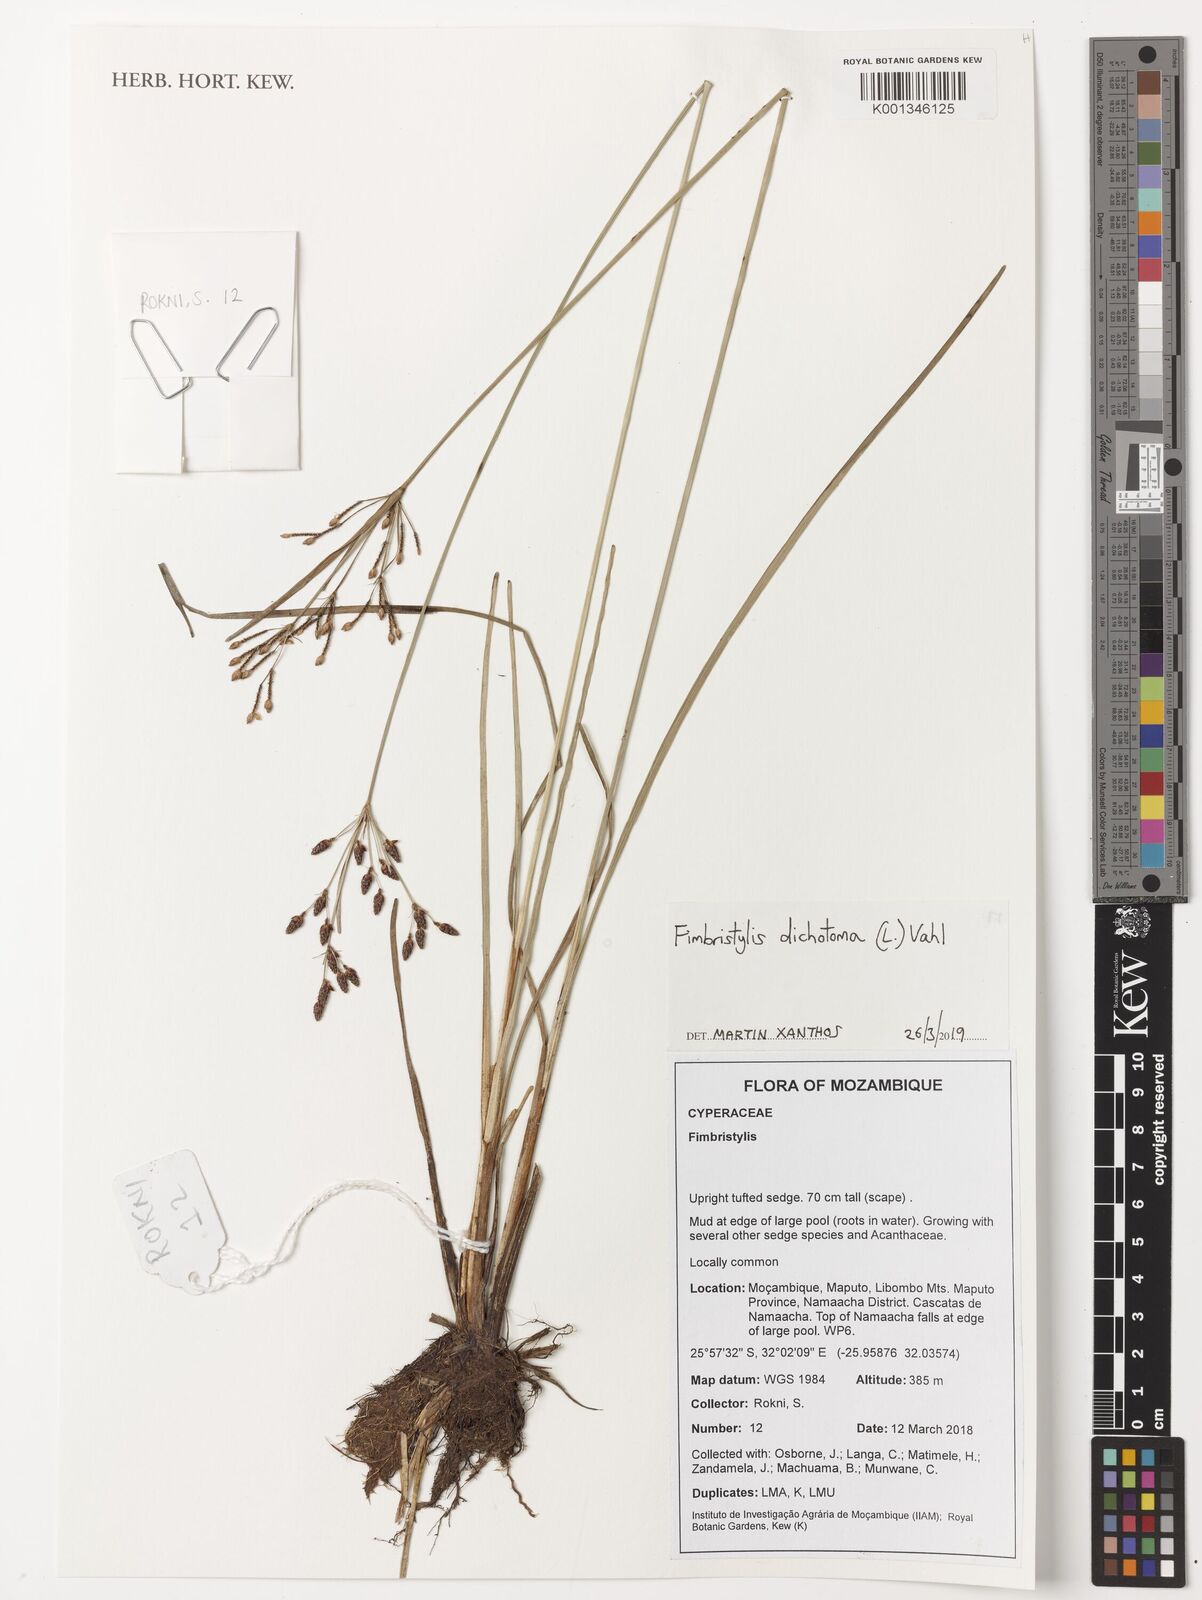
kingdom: Plantae
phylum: Tracheophyta
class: Liliopsida
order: Poales
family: Cyperaceae
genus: Fimbristylis
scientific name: Fimbristylis dichotoma
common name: Forked fimbry
